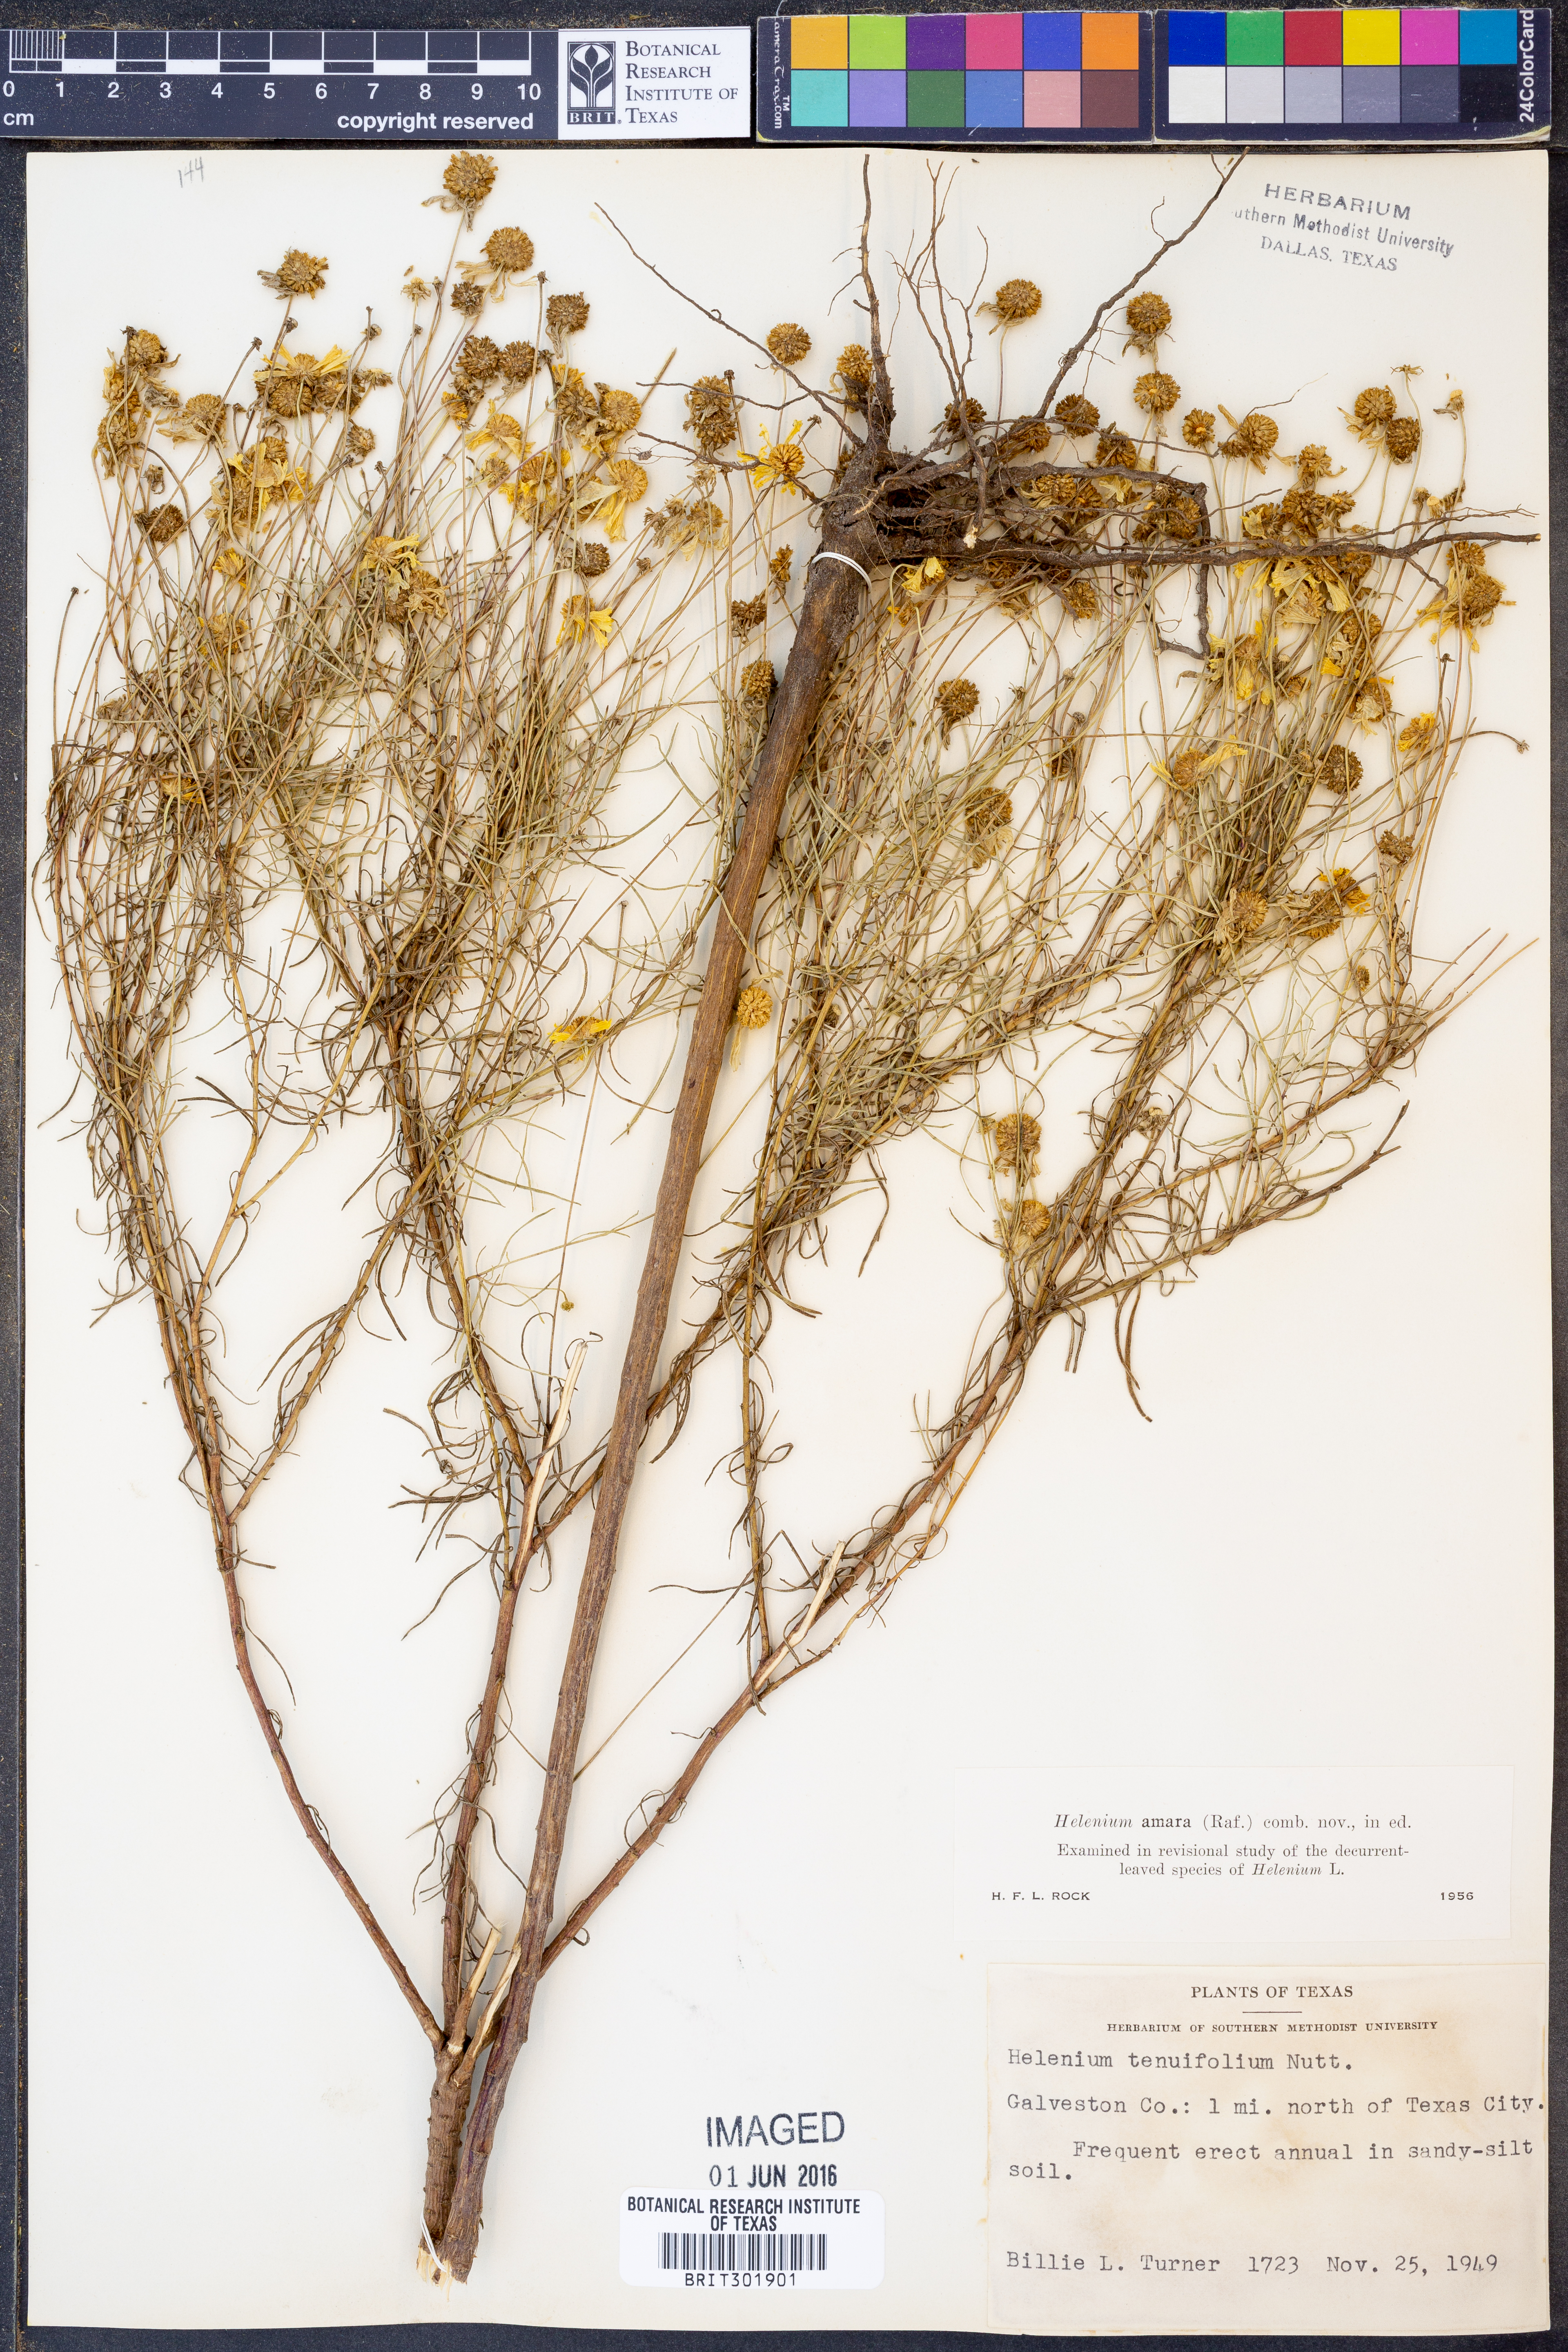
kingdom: Plantae
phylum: Tracheophyta
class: Magnoliopsida
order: Asterales
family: Asteraceae
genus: Helenium
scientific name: Helenium amarum
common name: Bitter sneezeweed
